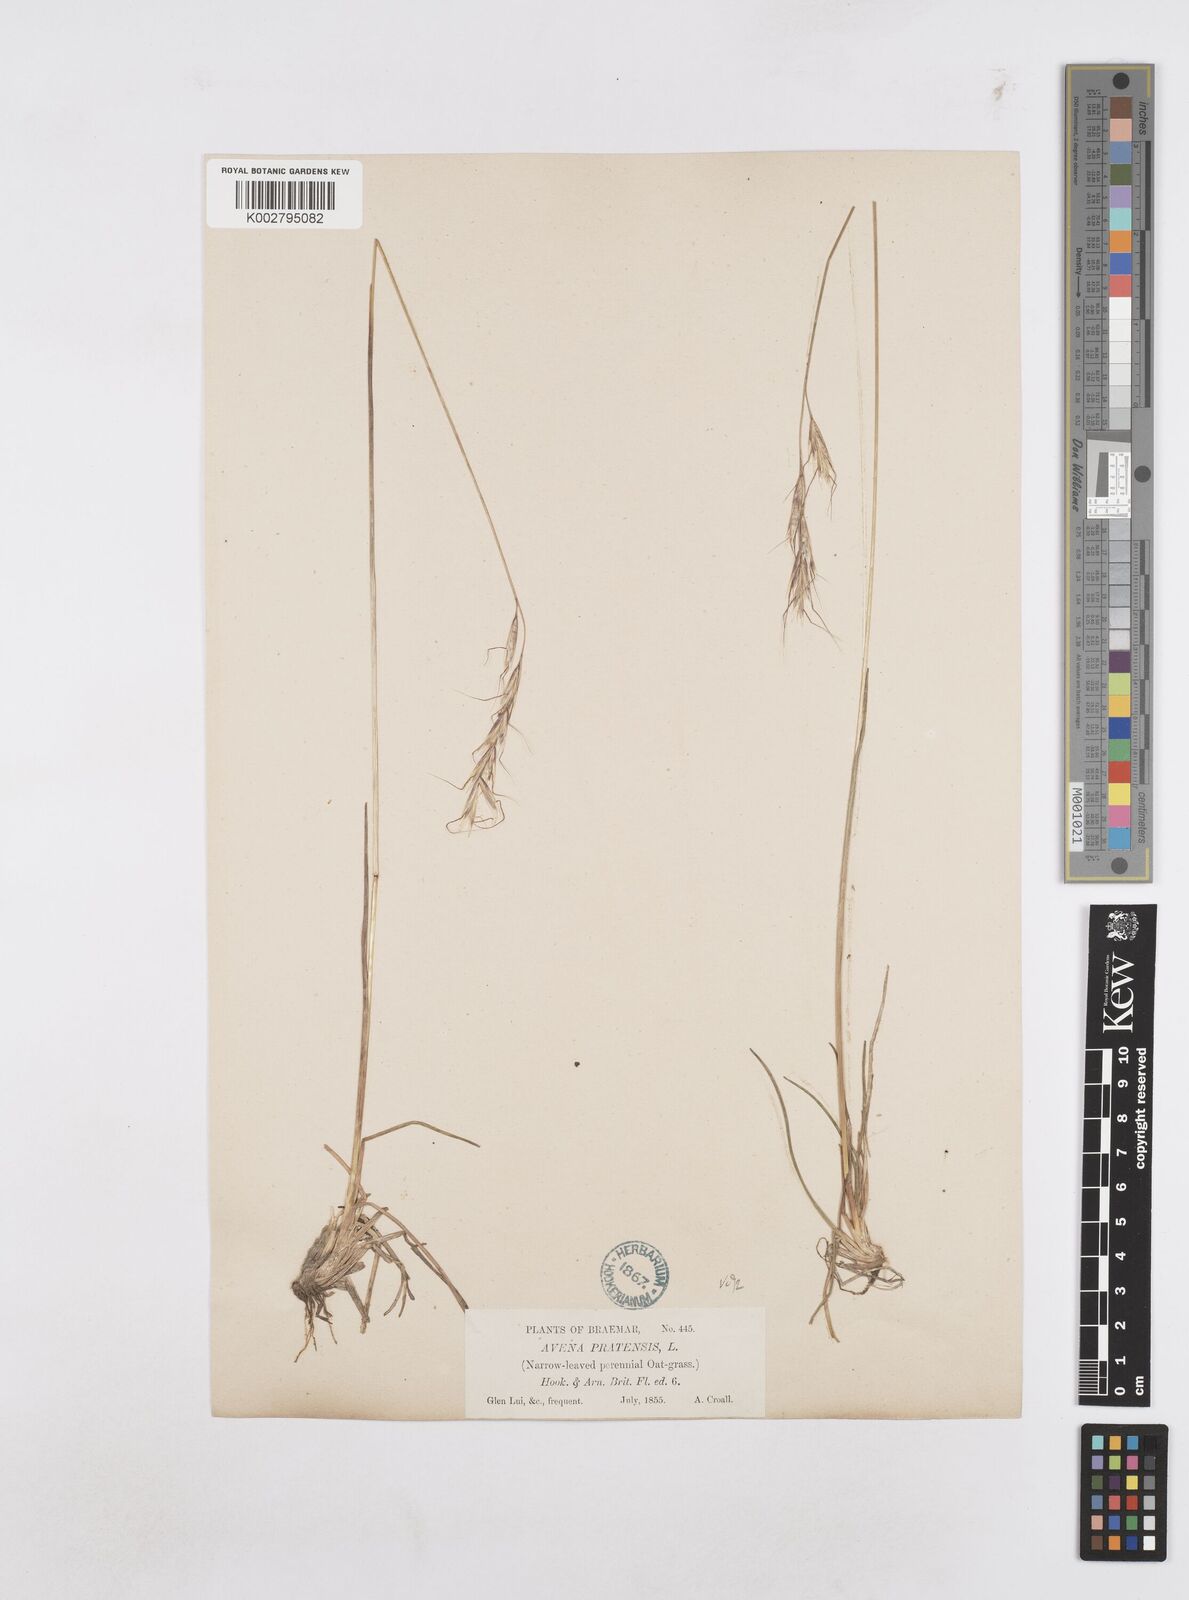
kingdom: Plantae
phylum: Tracheophyta
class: Liliopsida
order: Poales
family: Poaceae
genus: Helictochloa
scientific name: Helictochloa pratensis
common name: Meadow oat grass
